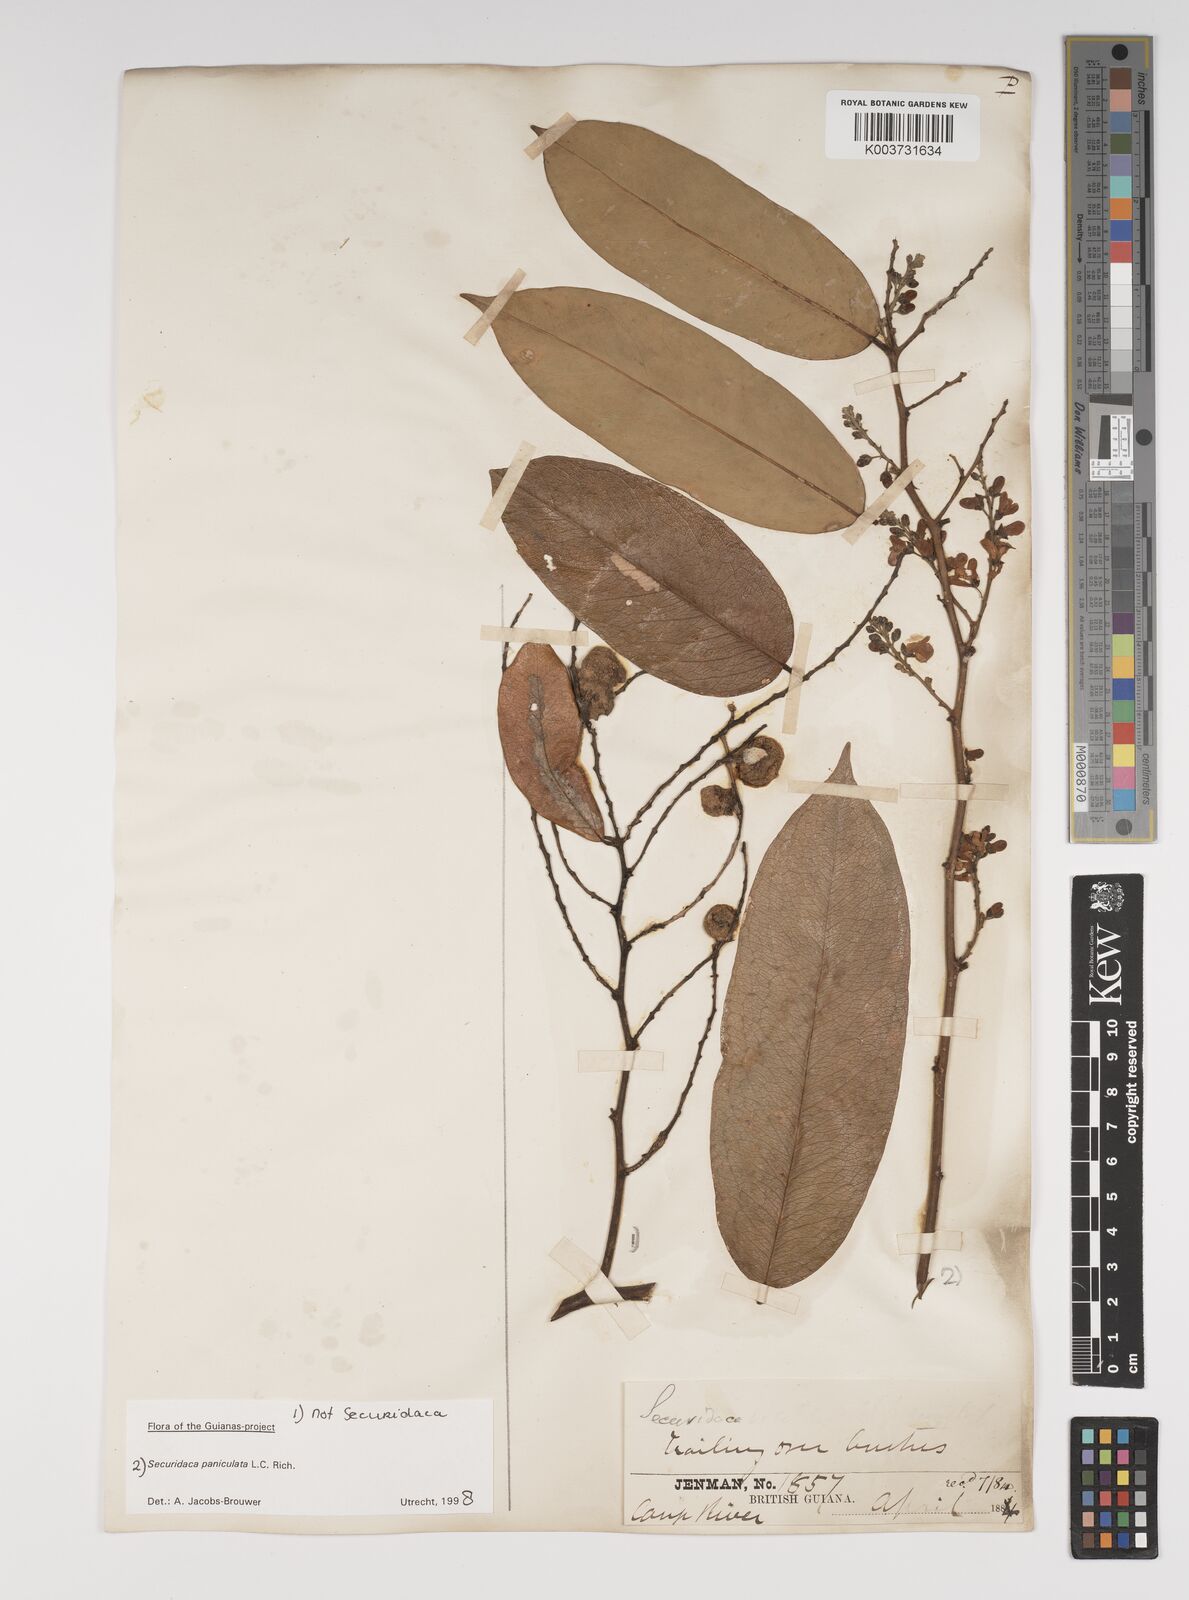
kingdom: Plantae
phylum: Tracheophyta
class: Magnoliopsida
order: Fabales
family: Polygalaceae
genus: Securidaca
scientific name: Securidaca paniculata
